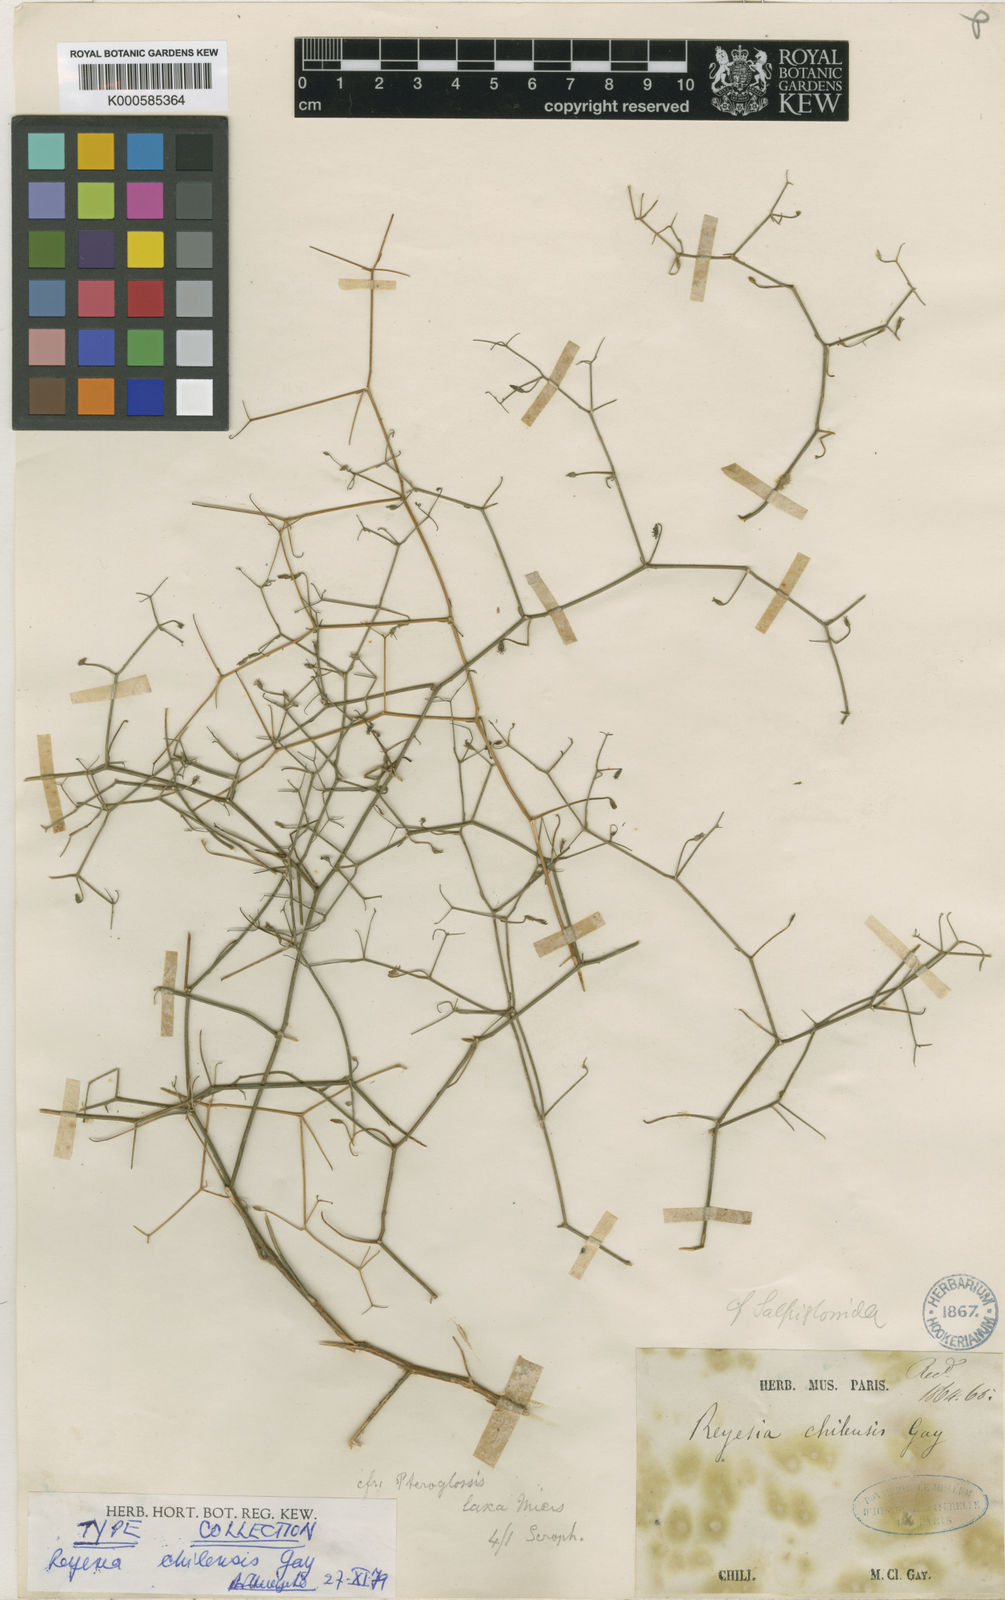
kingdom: Plantae
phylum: Tracheophyta
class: Magnoliopsida
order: Solanales
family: Solanaceae
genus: Reyesia
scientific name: Reyesia
